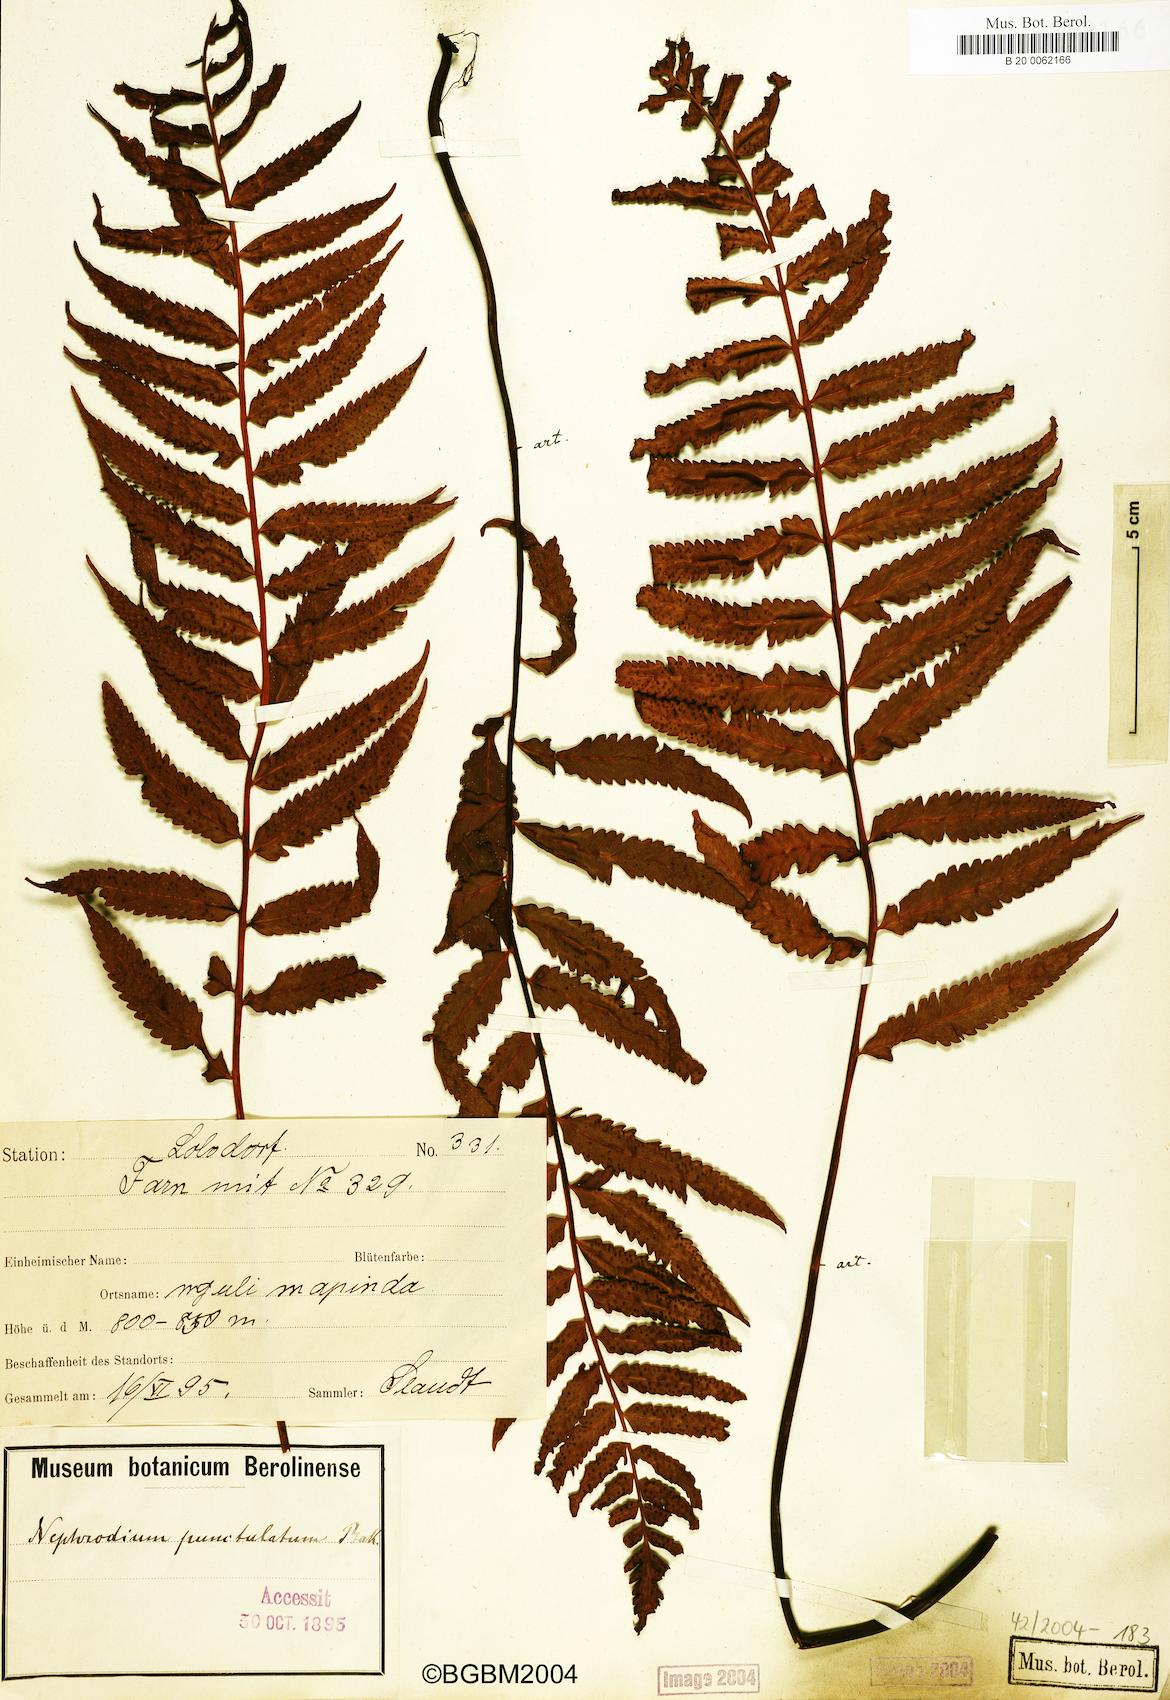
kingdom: Plantae
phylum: Tracheophyta
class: Polypodiopsida
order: Polypodiales
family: Tectariaceae
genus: Arthropteris
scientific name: Arthropteris orientalis
